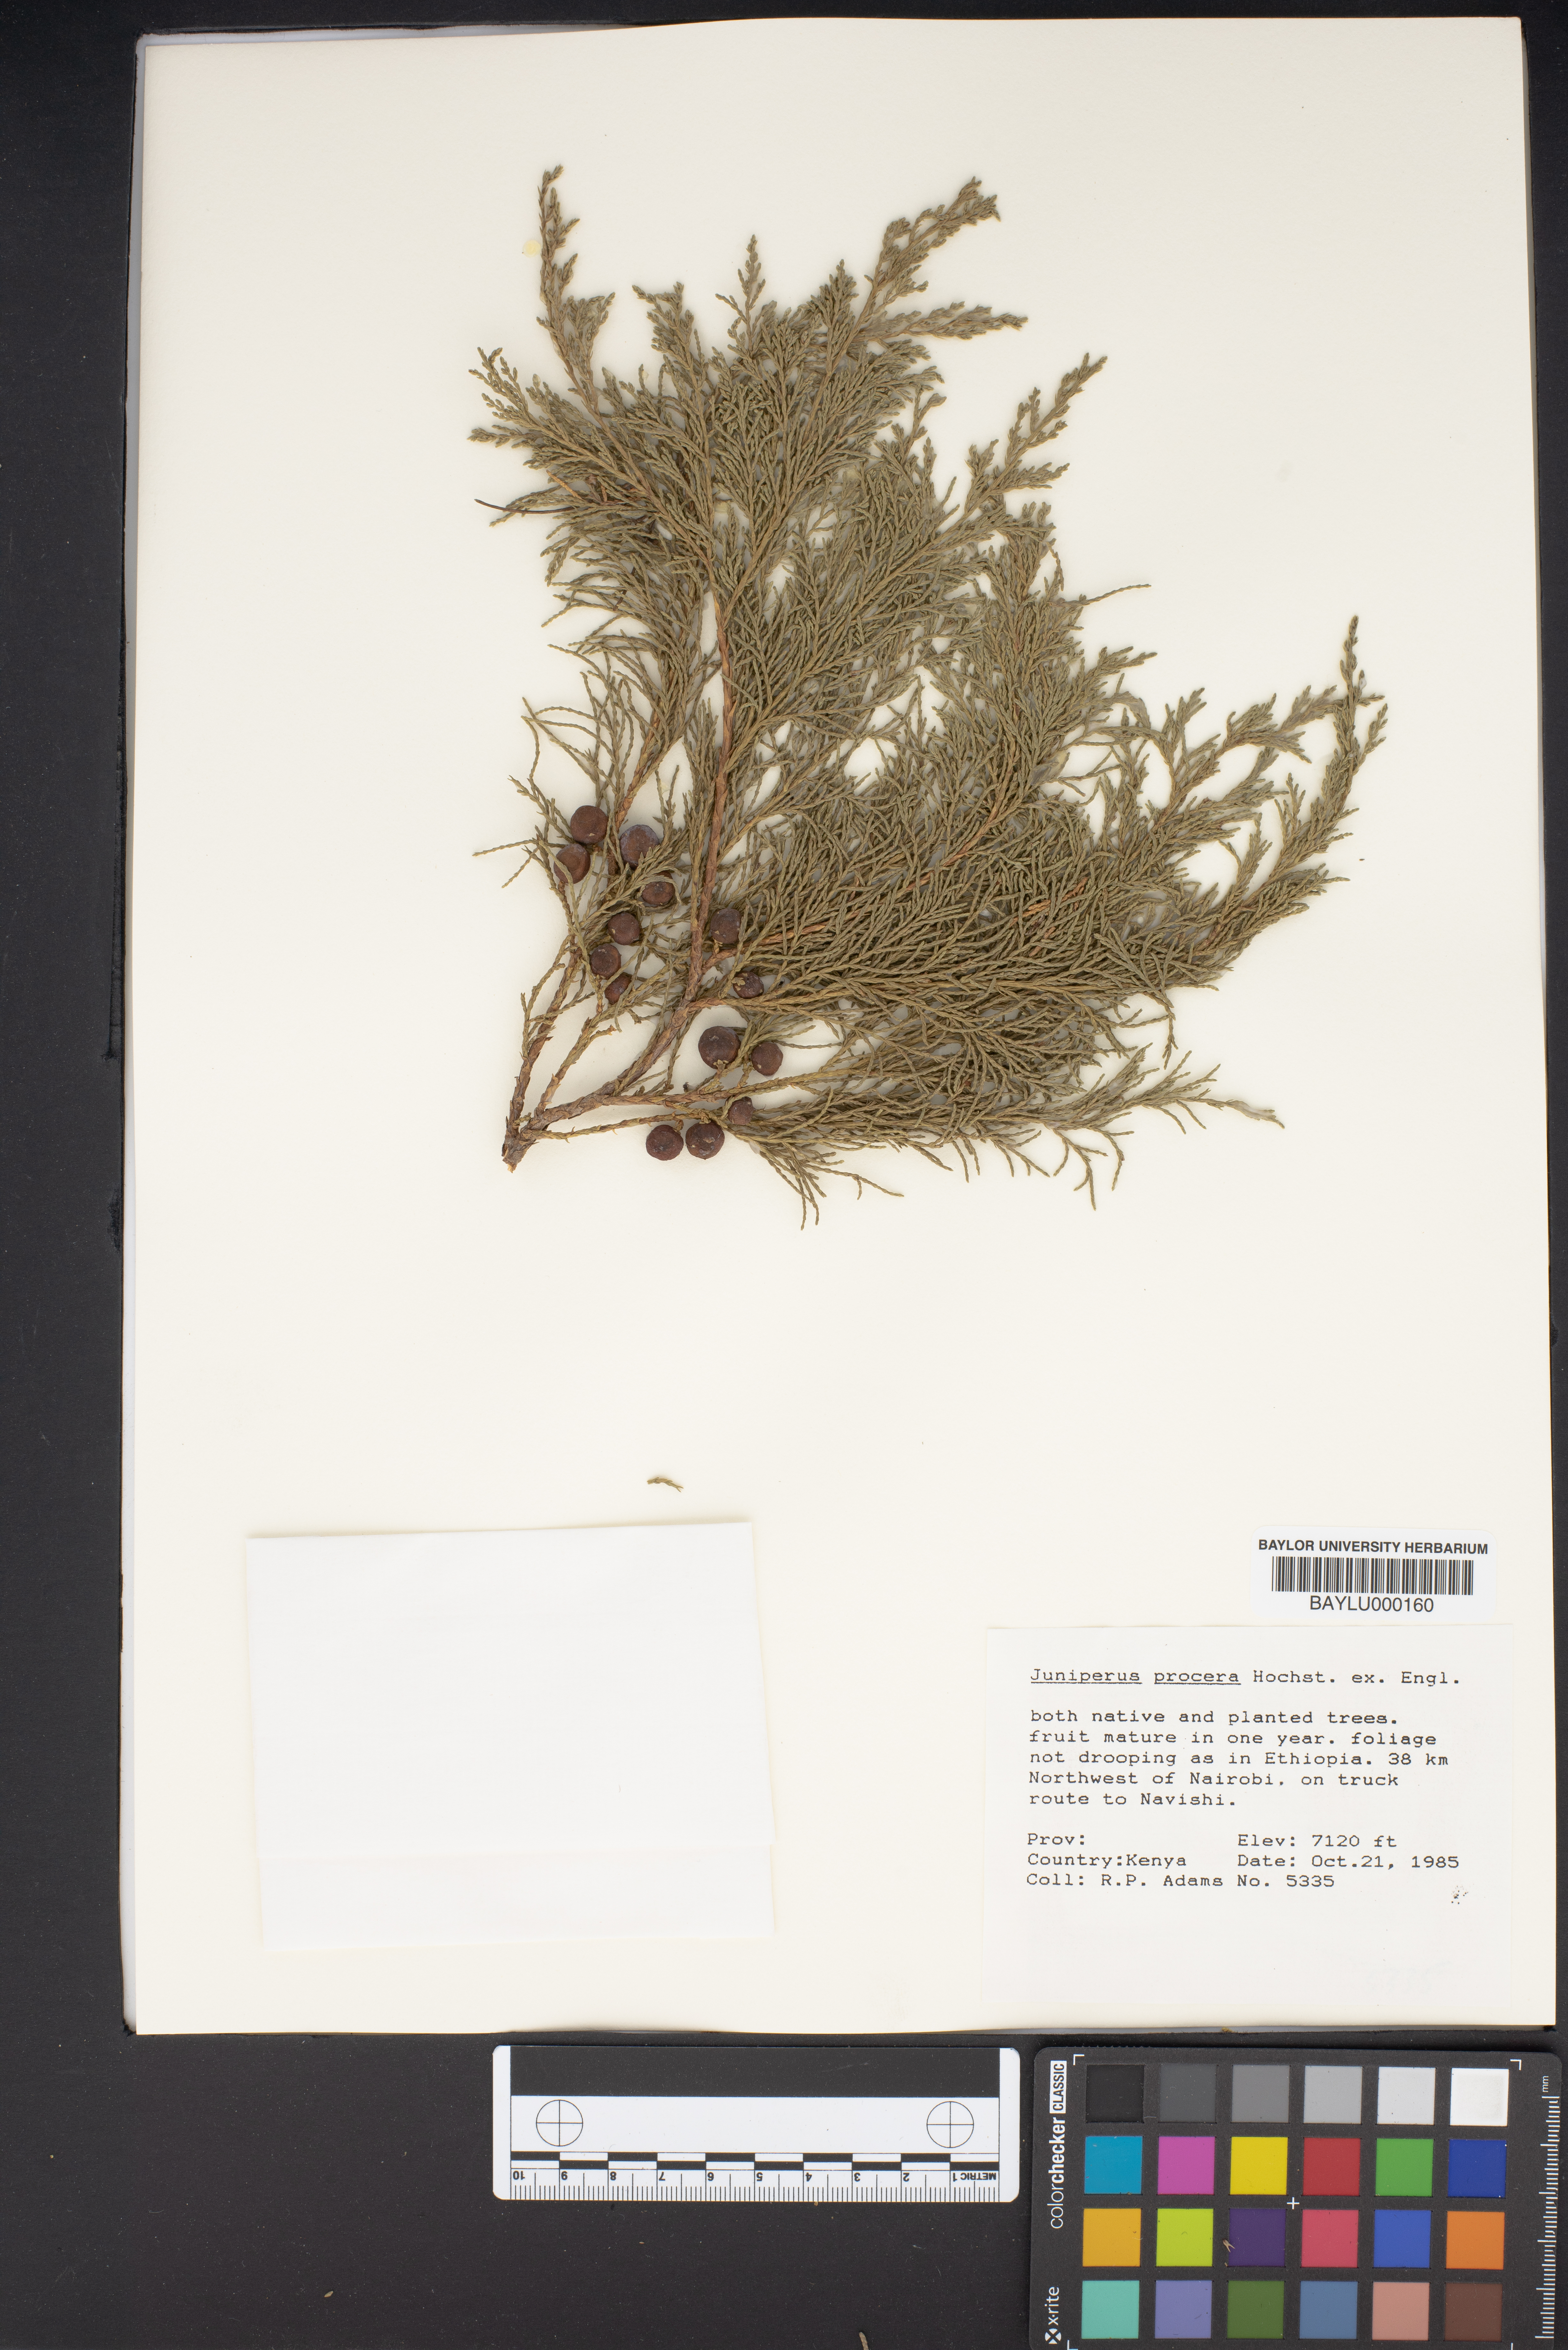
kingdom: Plantae
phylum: Tracheophyta
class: Pinopsida
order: Pinales
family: Cupressaceae
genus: Juniperus
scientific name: Juniperus procera
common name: African juniper
